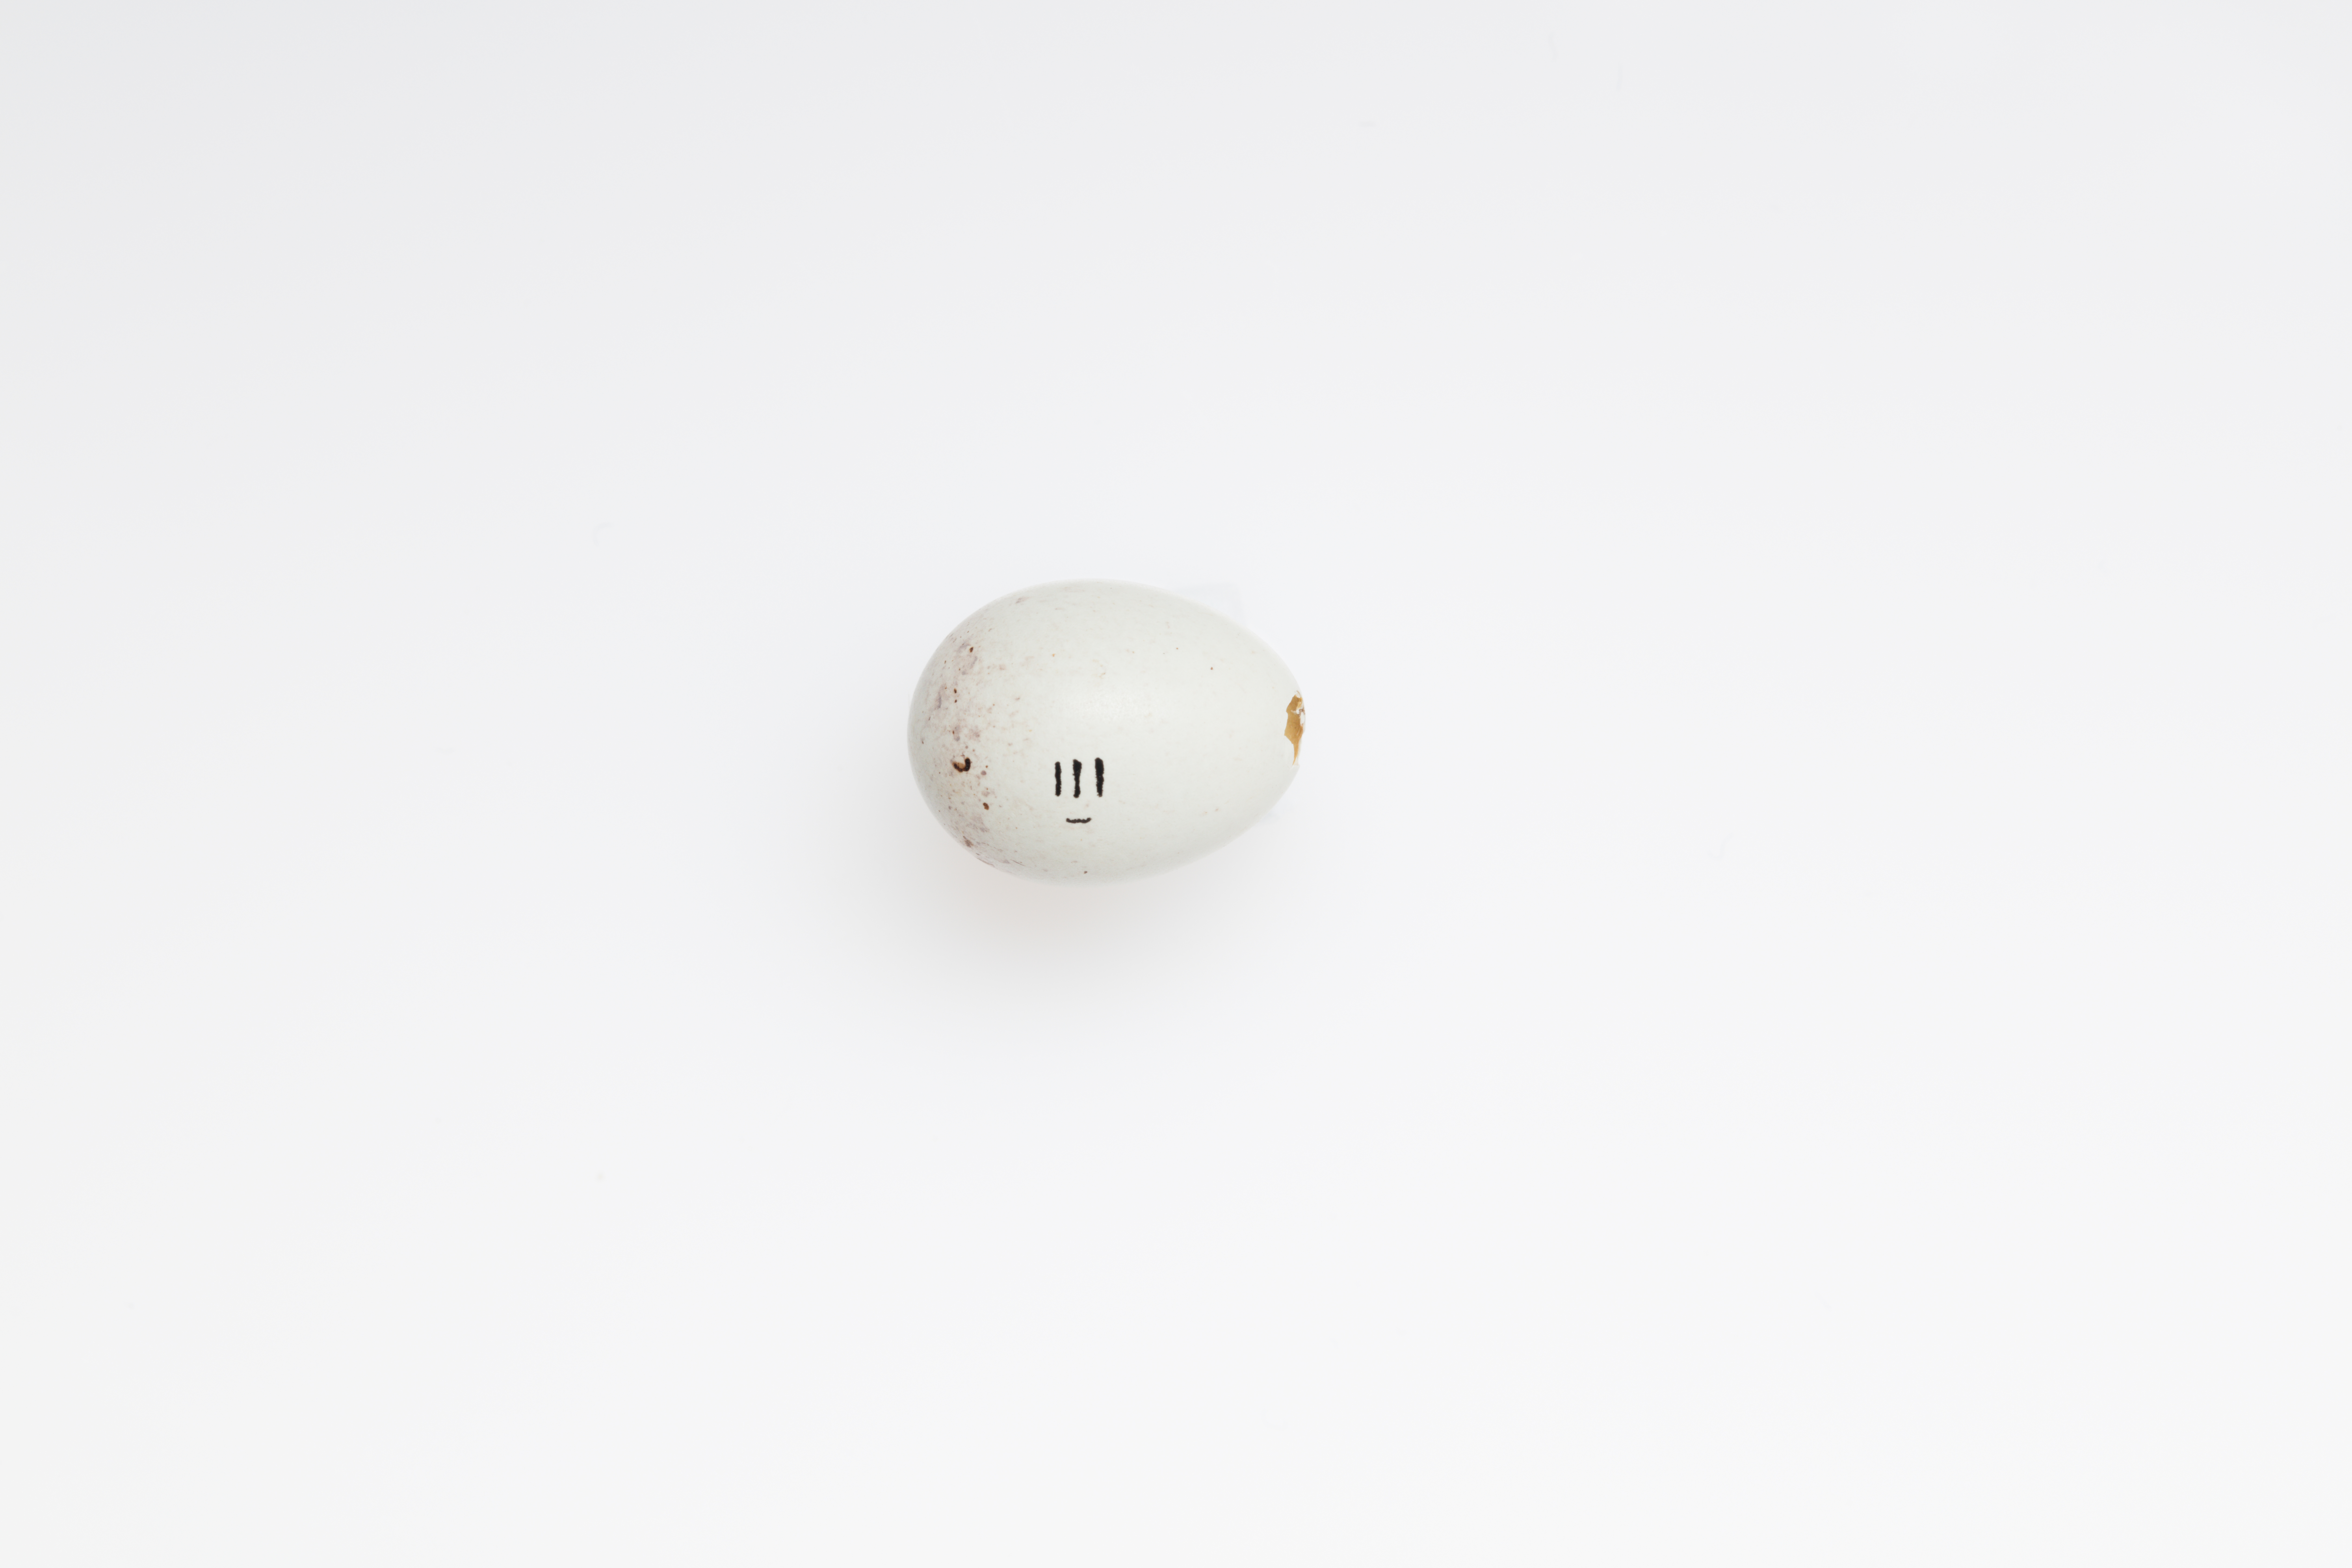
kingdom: Animalia
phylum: Chordata
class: Aves
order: Passeriformes
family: Fringillidae
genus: Acanthis
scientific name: Acanthis flammea
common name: Common redpoll
